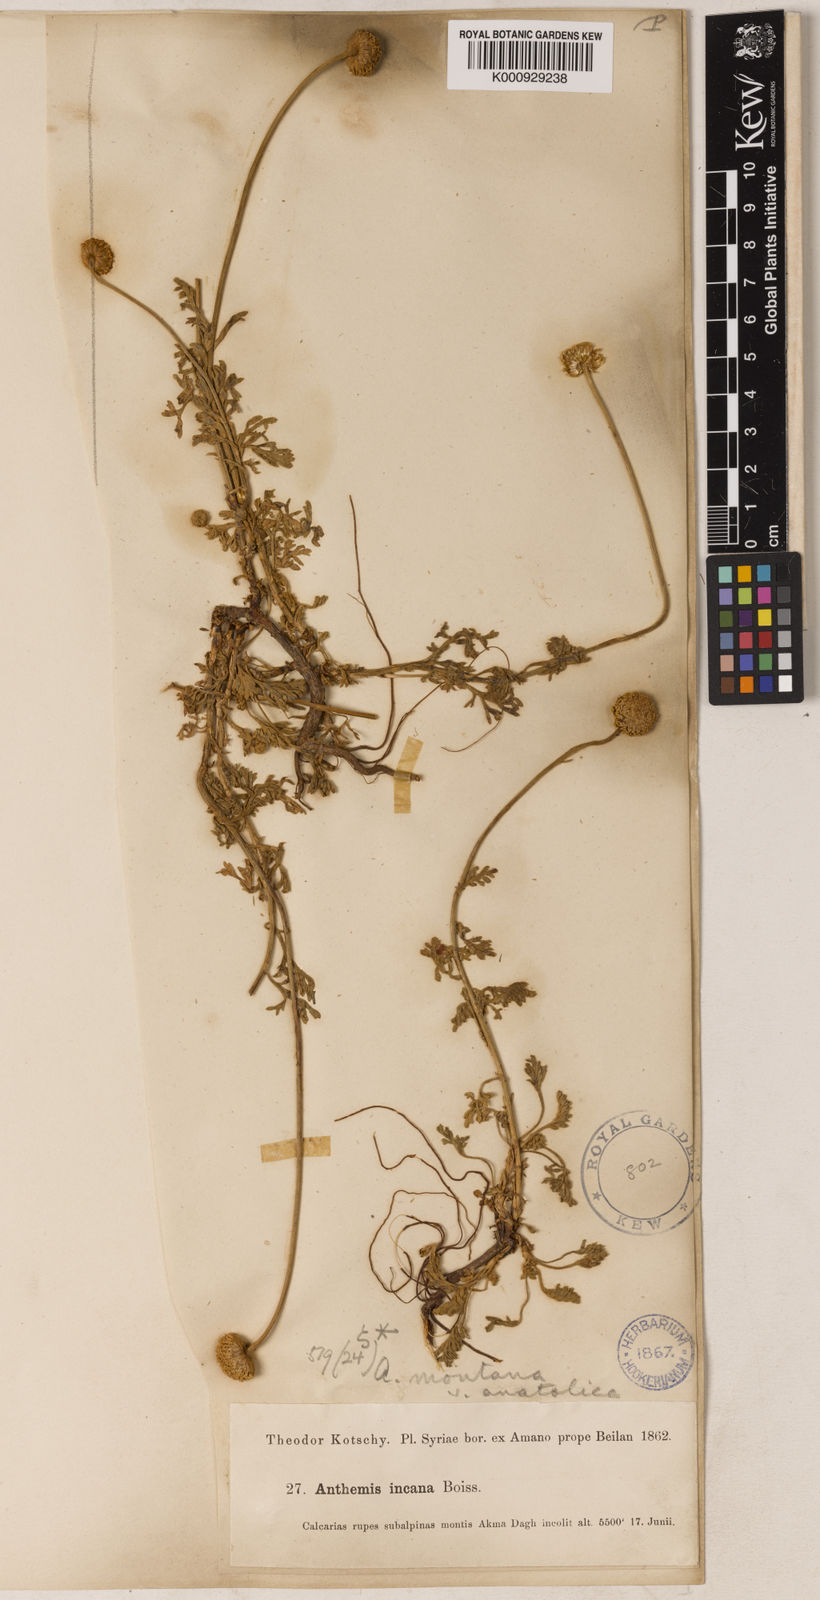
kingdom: Plantae
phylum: Tracheophyta
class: Magnoliopsida
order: Asterales
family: Asteraceae
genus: Anthemis
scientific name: Anthemis cretica
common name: Mountain dog-daisy
